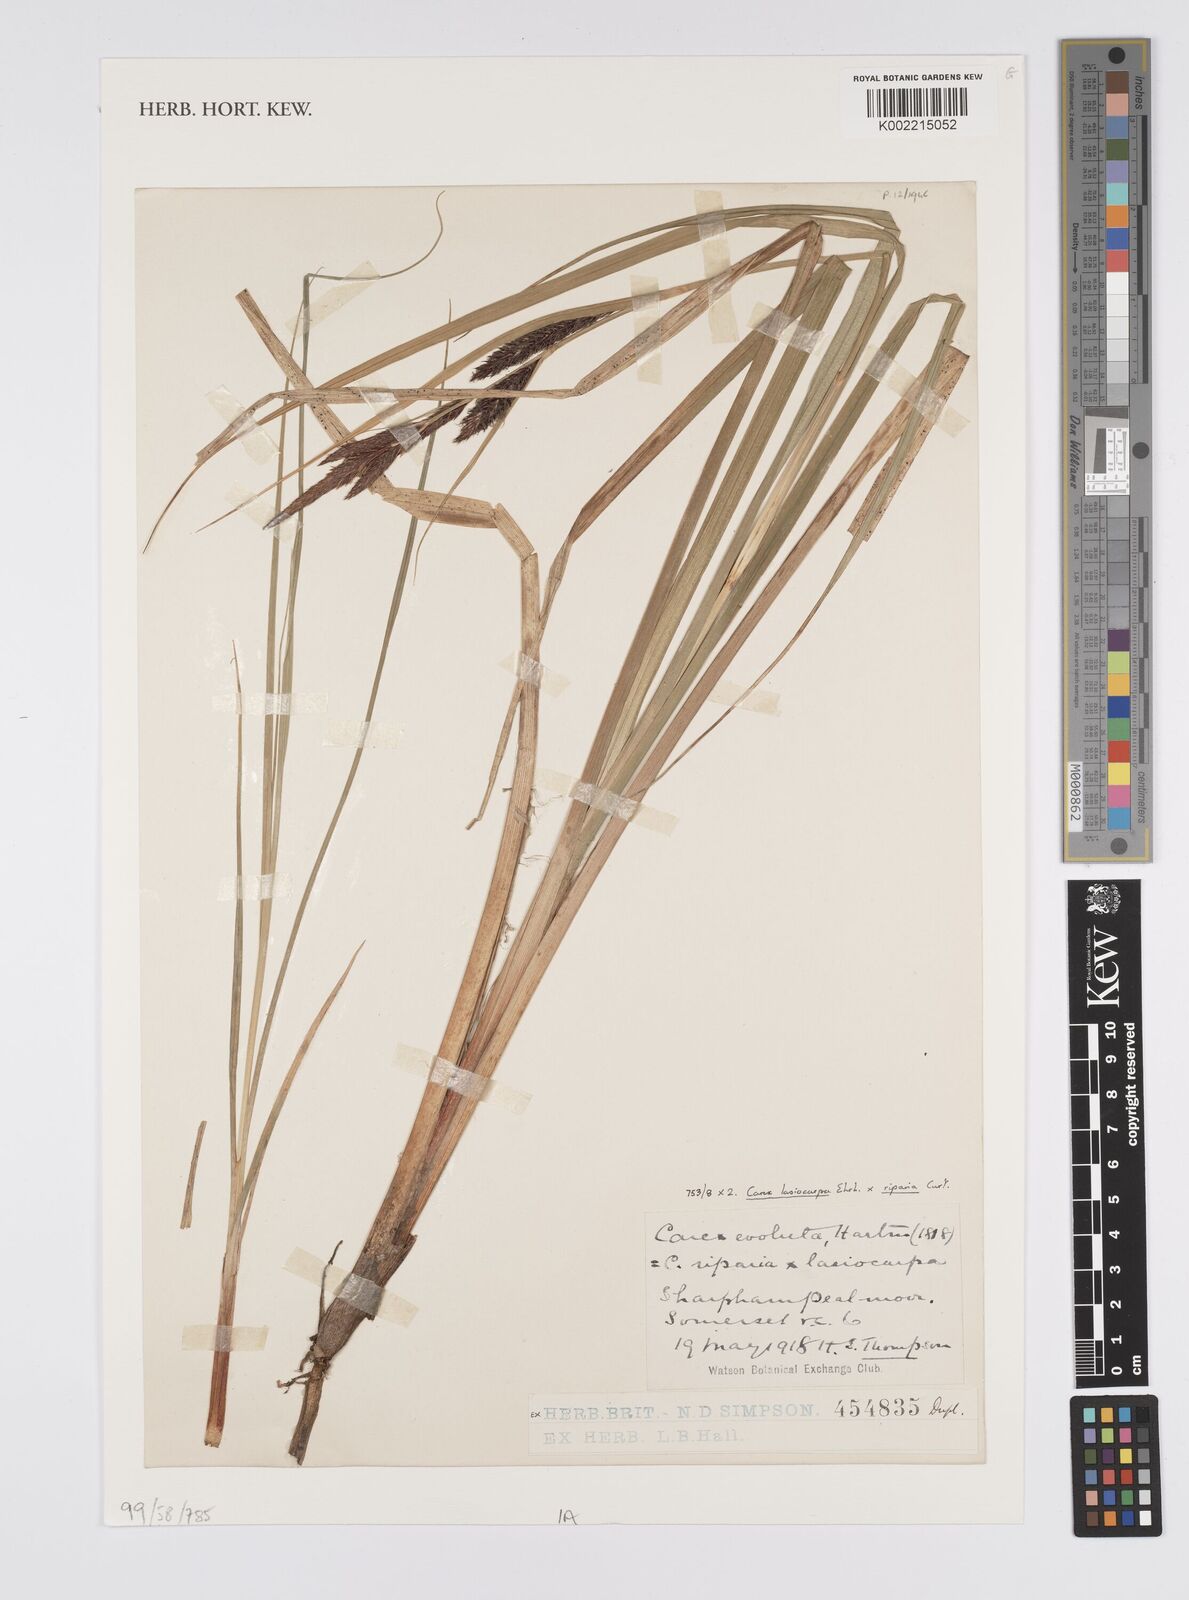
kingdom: Plantae
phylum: Tracheophyta
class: Liliopsida
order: Poales
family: Cyperaceae
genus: Carex
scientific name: Carex evoluta
